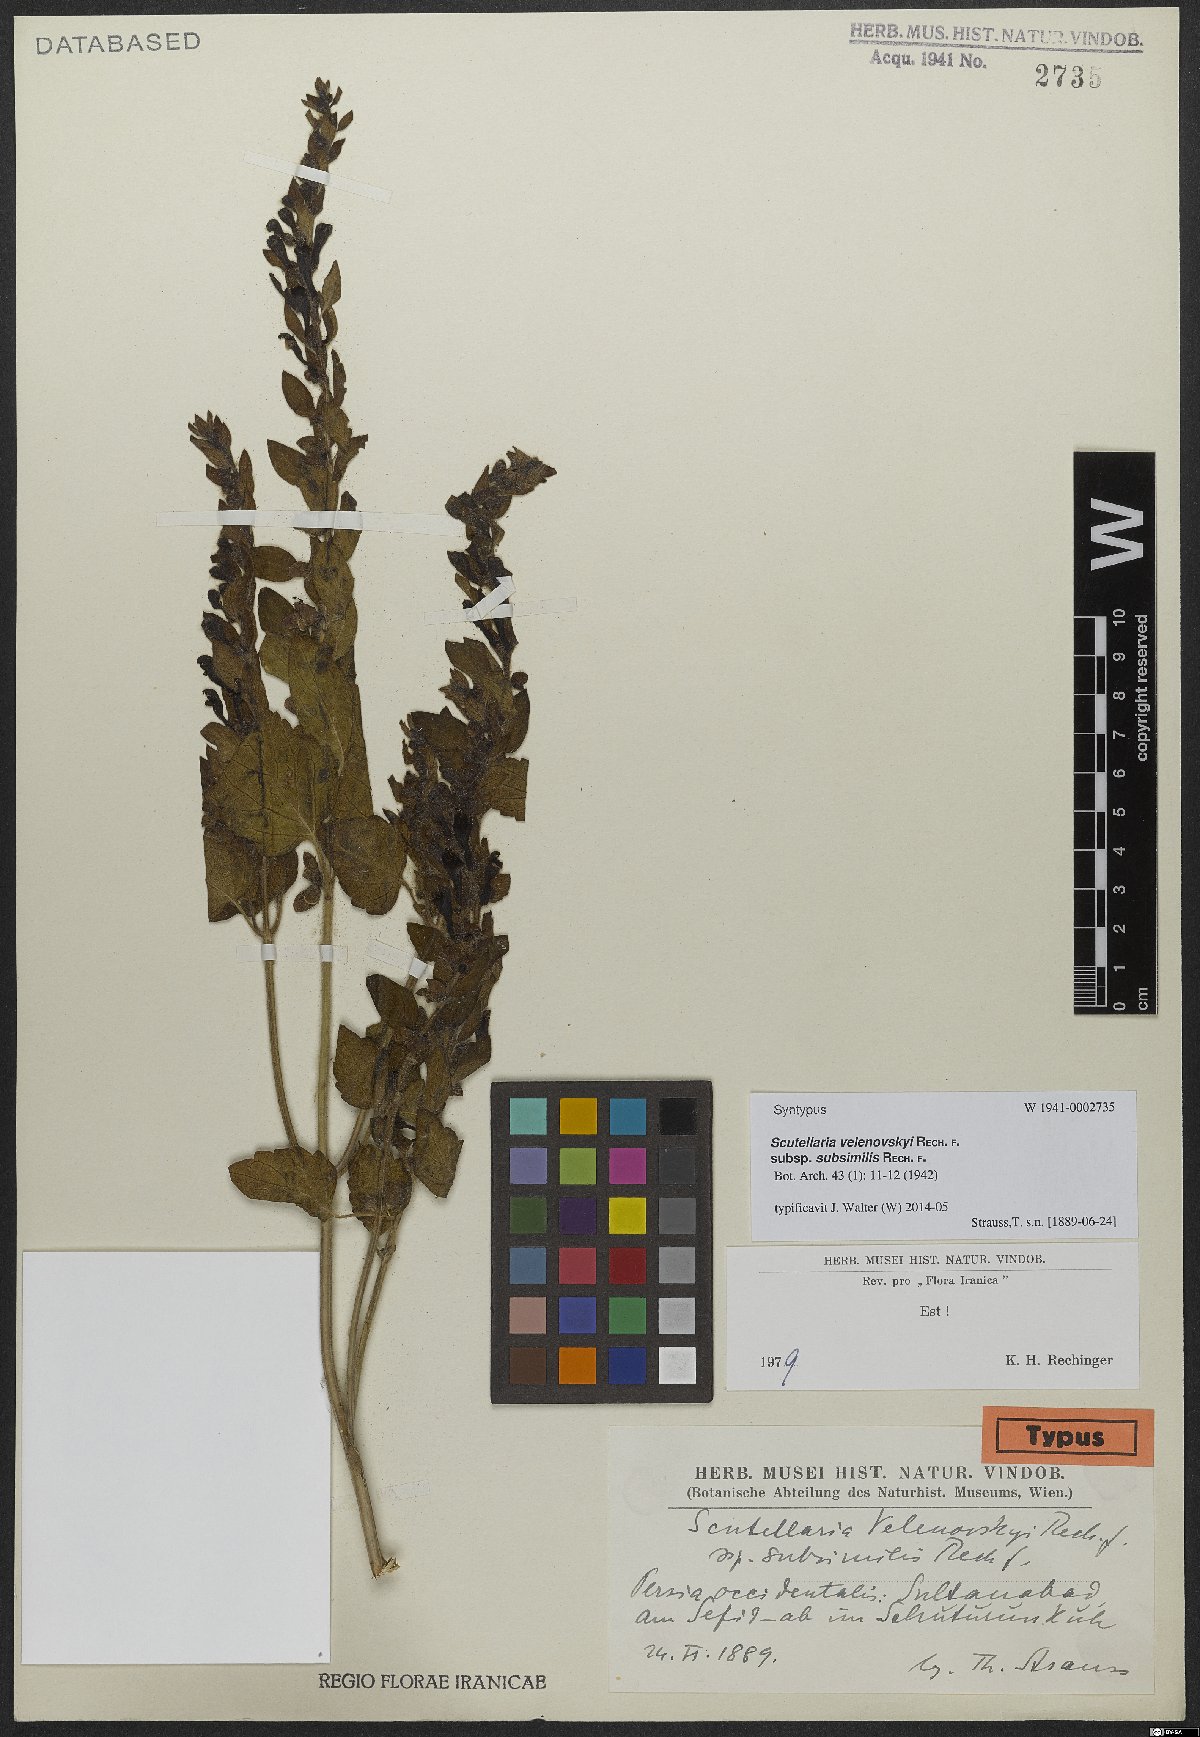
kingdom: Plantae
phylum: Tracheophyta
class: Magnoliopsida
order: Lamiales
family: Lamiaceae
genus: Scutellaria
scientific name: Scutellaria albida
